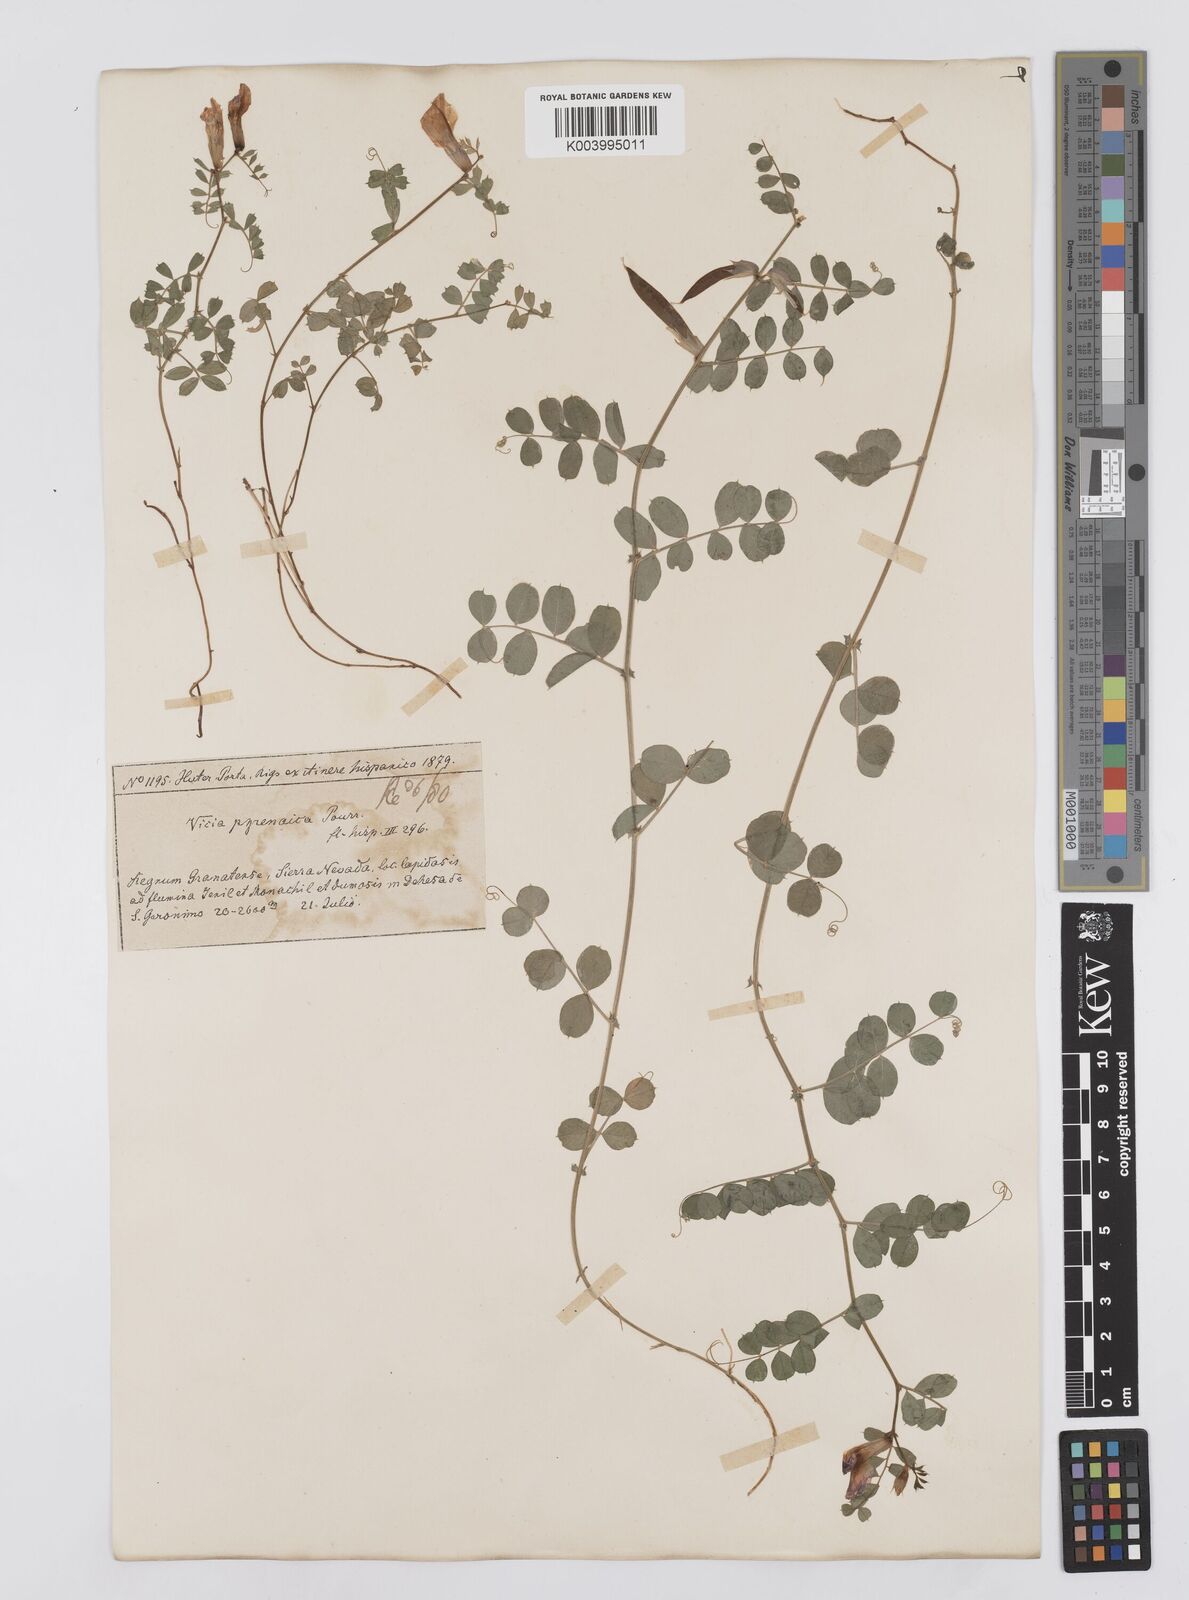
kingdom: Plantae
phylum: Tracheophyta
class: Magnoliopsida
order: Fabales
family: Fabaceae
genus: Vicia
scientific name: Vicia pyrenaica
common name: Pyrenean vetch
